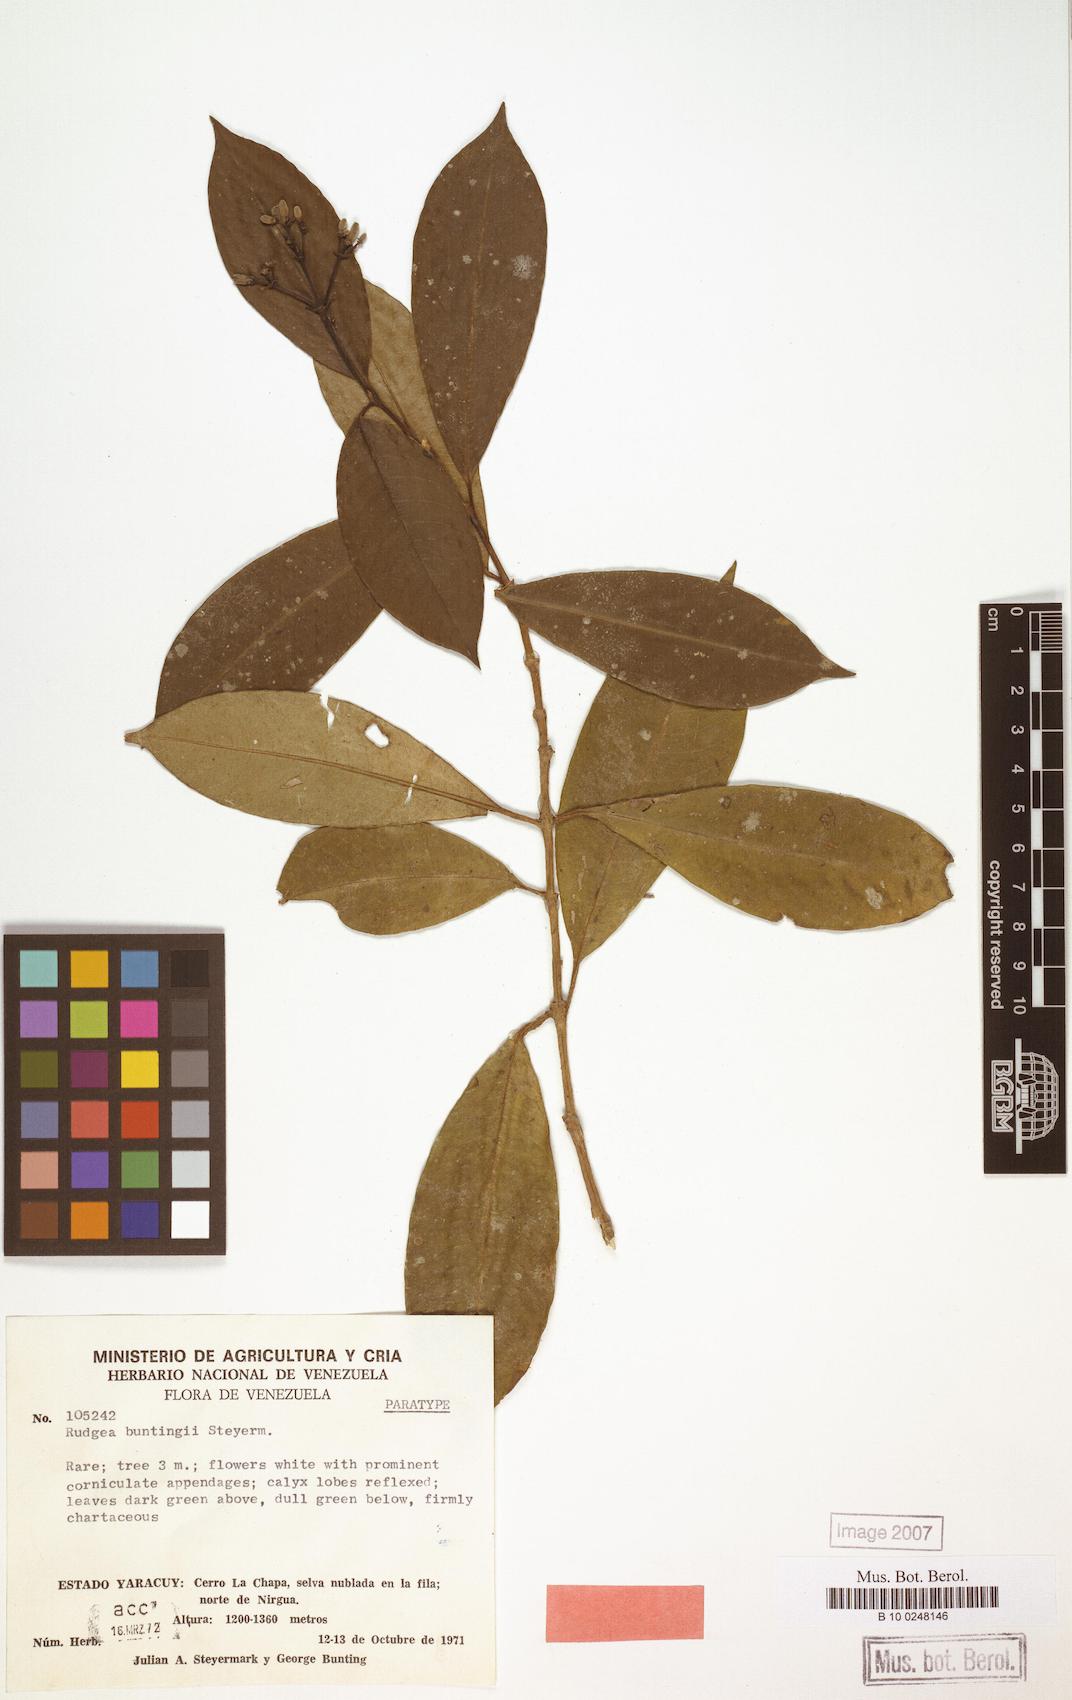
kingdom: Plantae
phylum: Tracheophyta
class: Magnoliopsida
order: Gentianales
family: Rubiaceae
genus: Rudgea
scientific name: Rudgea buntingii
